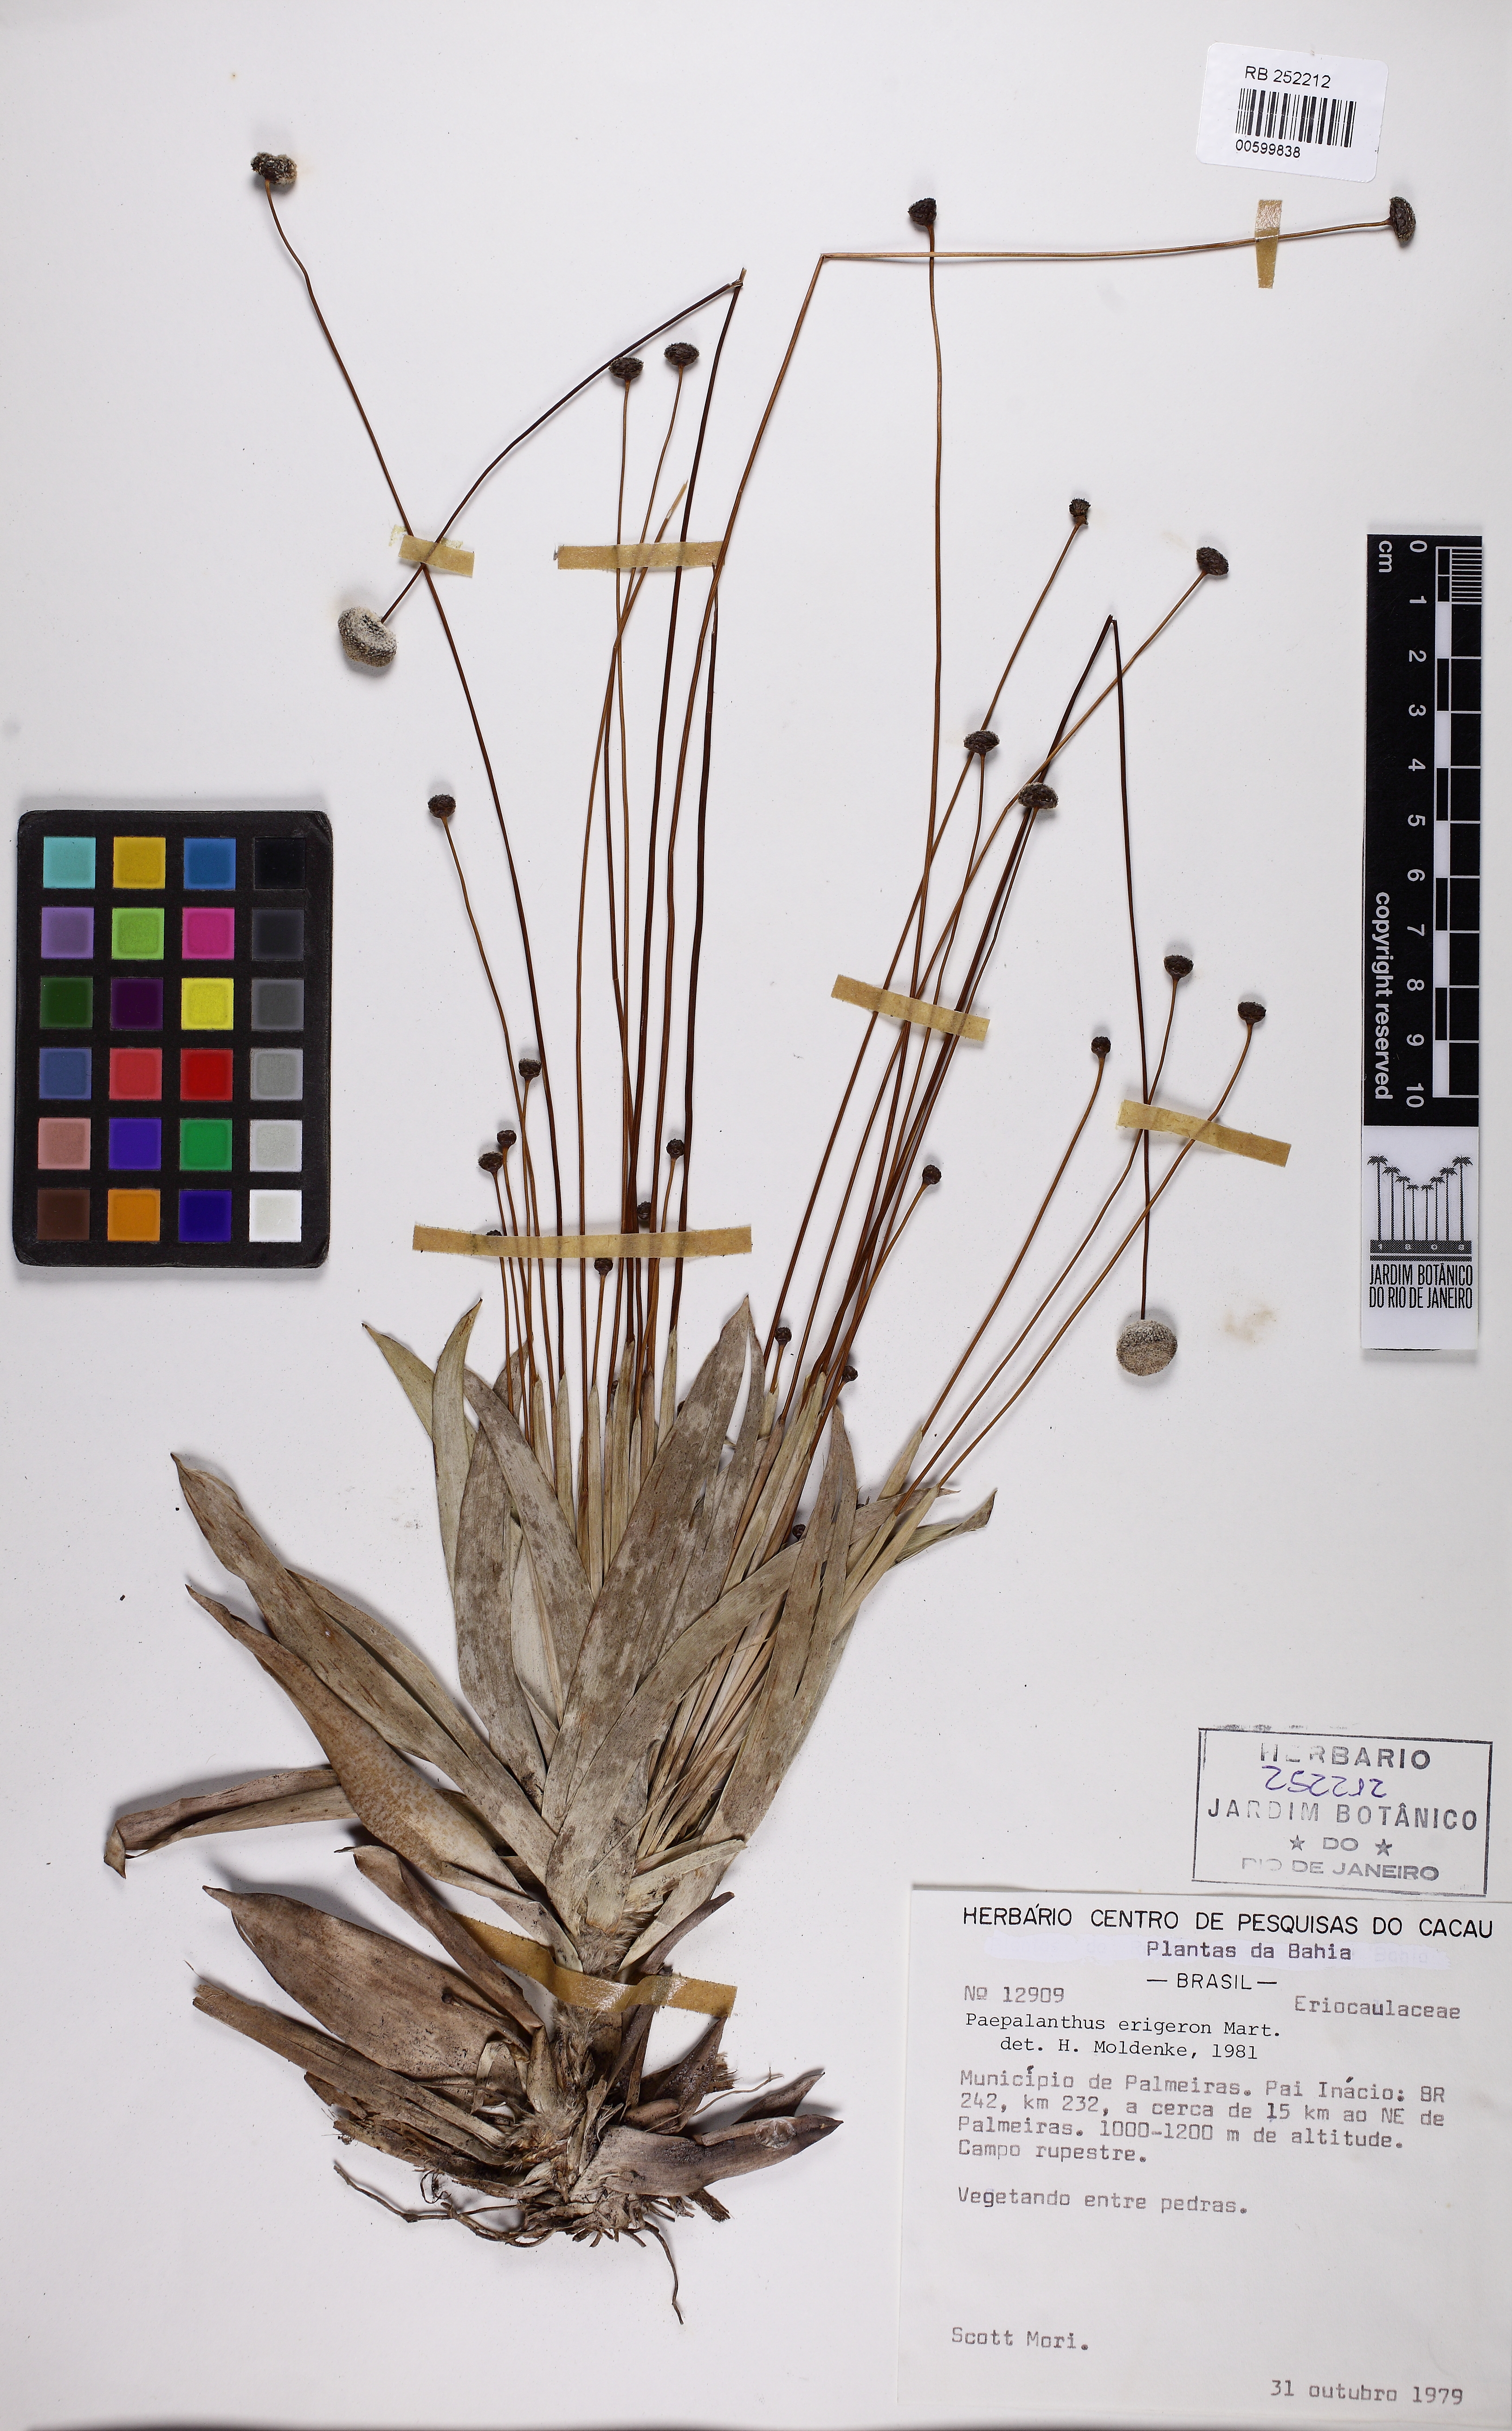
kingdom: Plantae
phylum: Tracheophyta
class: Liliopsida
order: Poales
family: Eriocaulaceae
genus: Paepalanthus
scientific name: Paepalanthus erigeron
